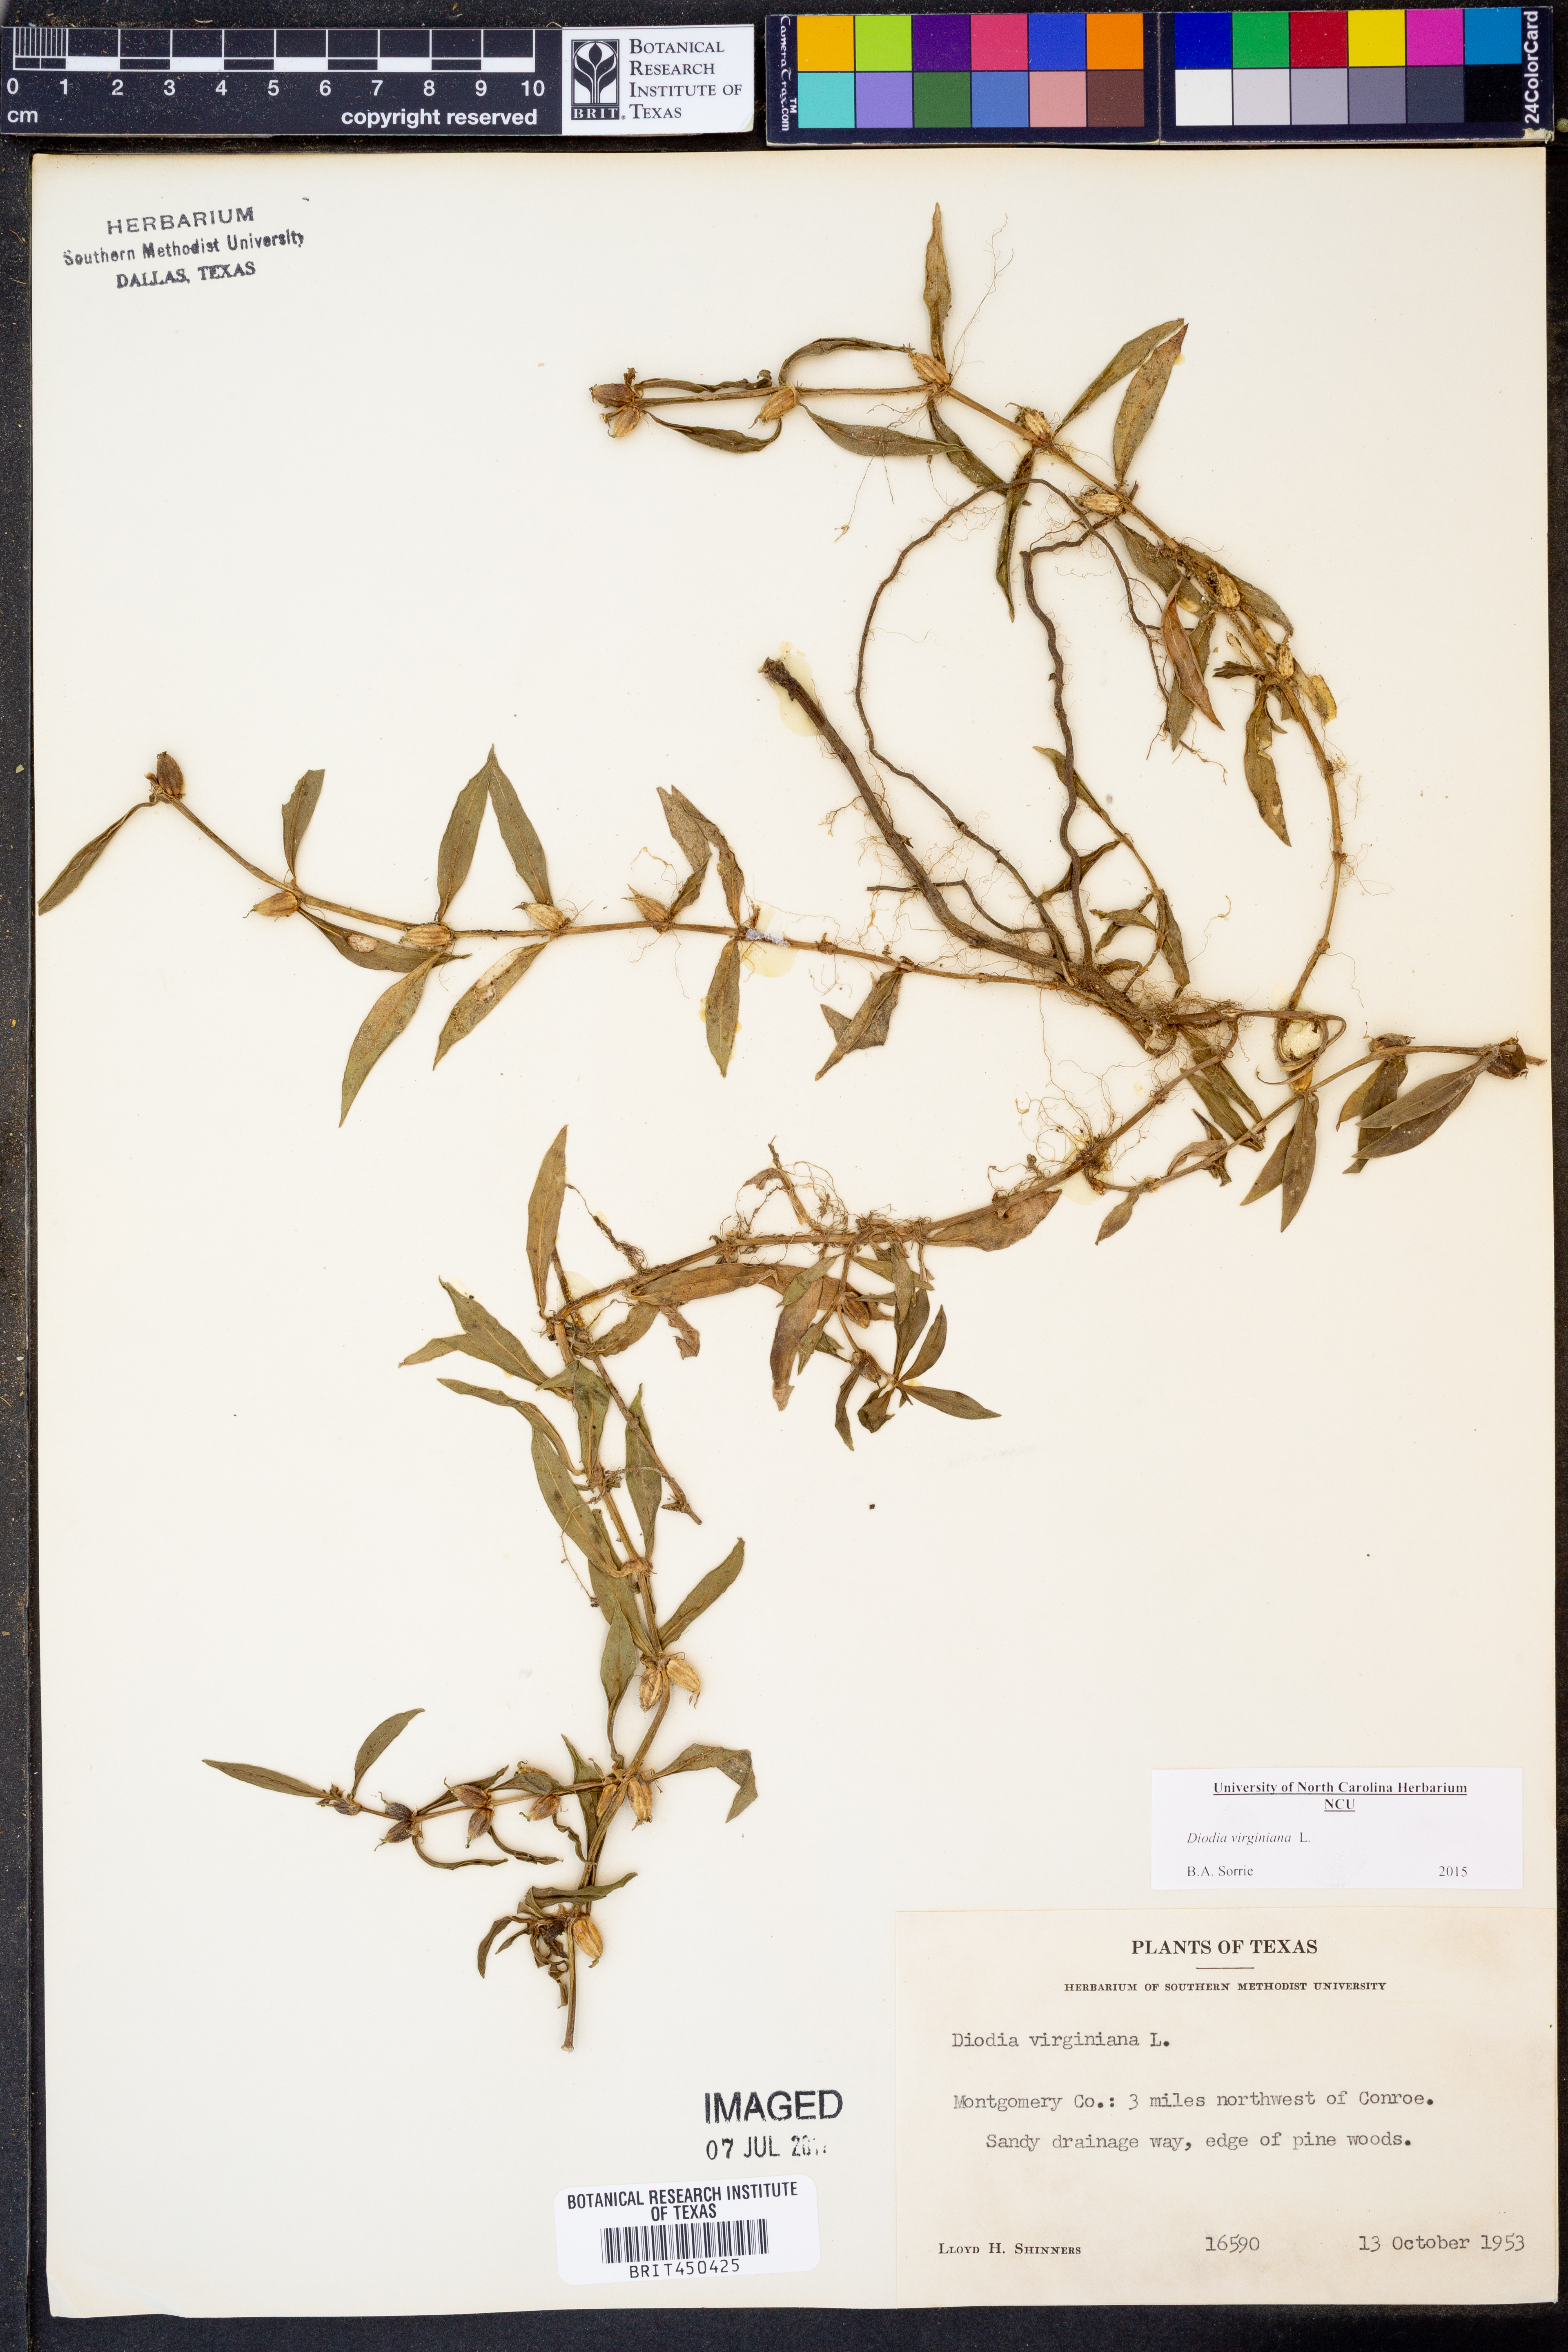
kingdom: Plantae
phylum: Tracheophyta
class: Magnoliopsida
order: Gentianales
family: Rubiaceae
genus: Diodia
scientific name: Diodia virginiana
